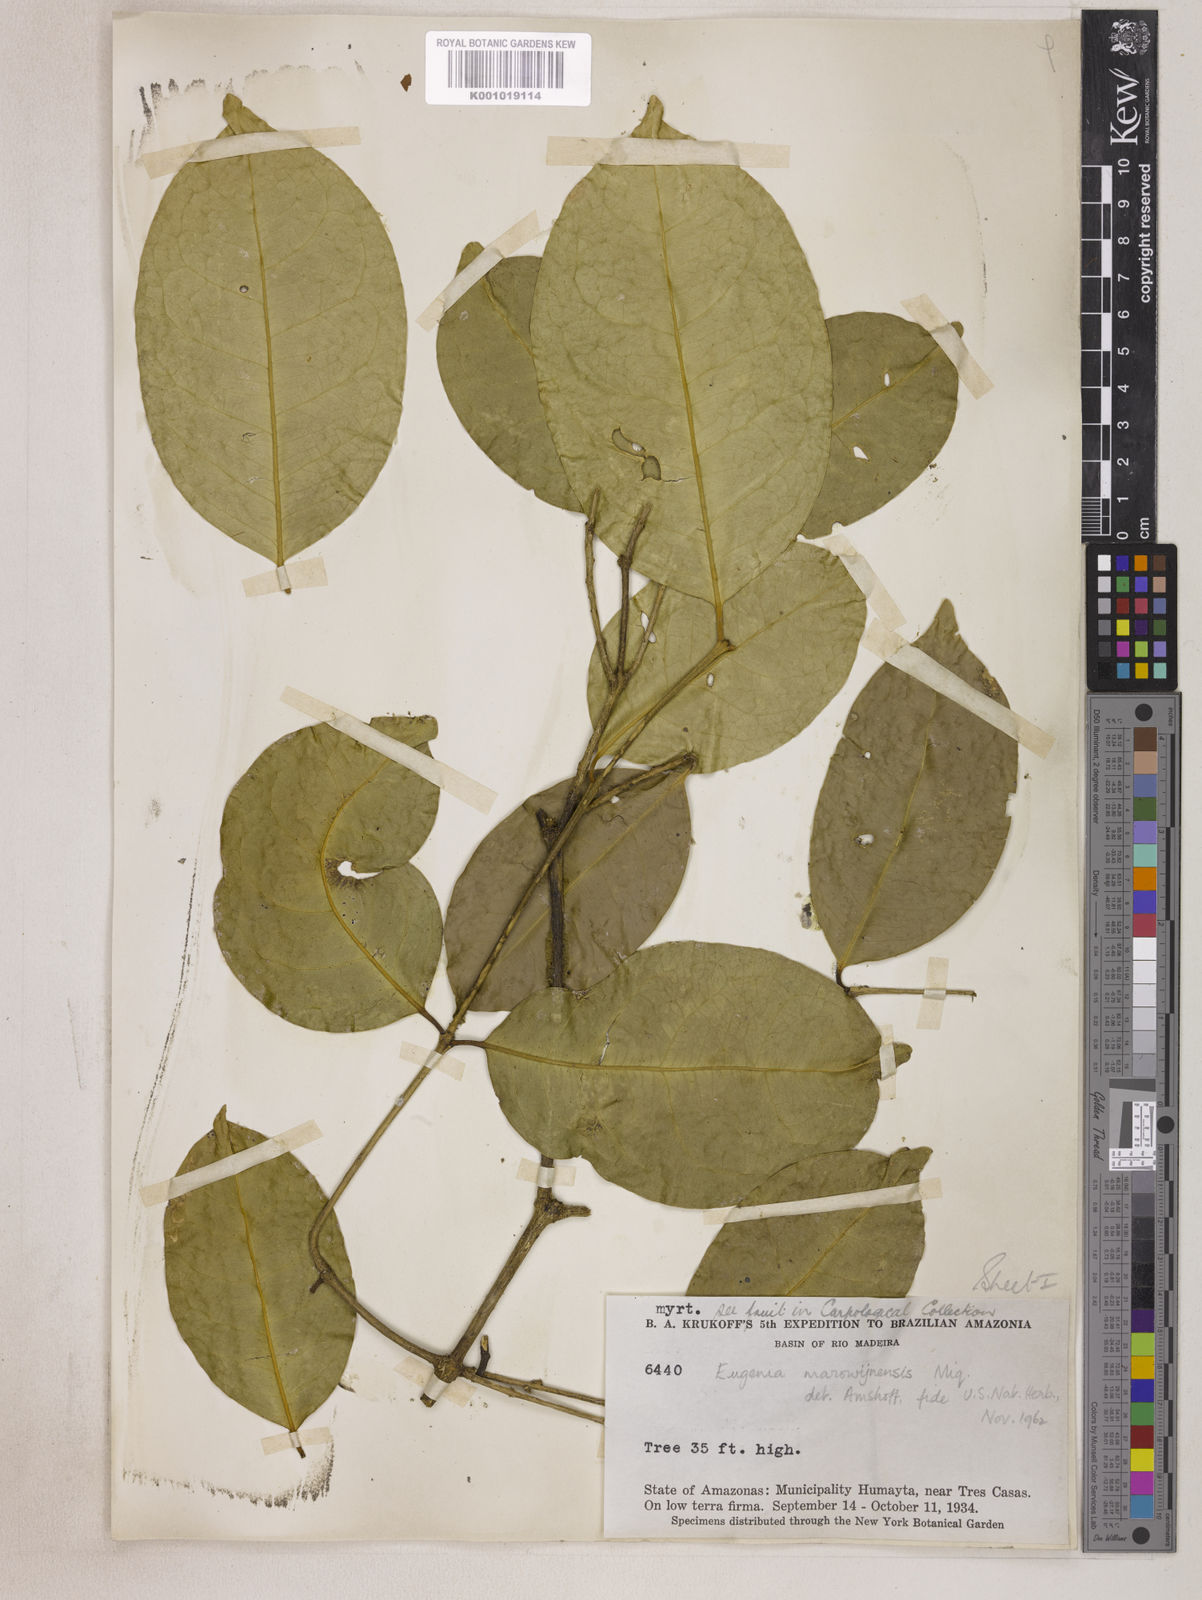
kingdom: Plantae
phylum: Tracheophyta
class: Magnoliopsida
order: Myrtales
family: Myrtaceae
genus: Eugenia
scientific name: Eugenia marowynensis
